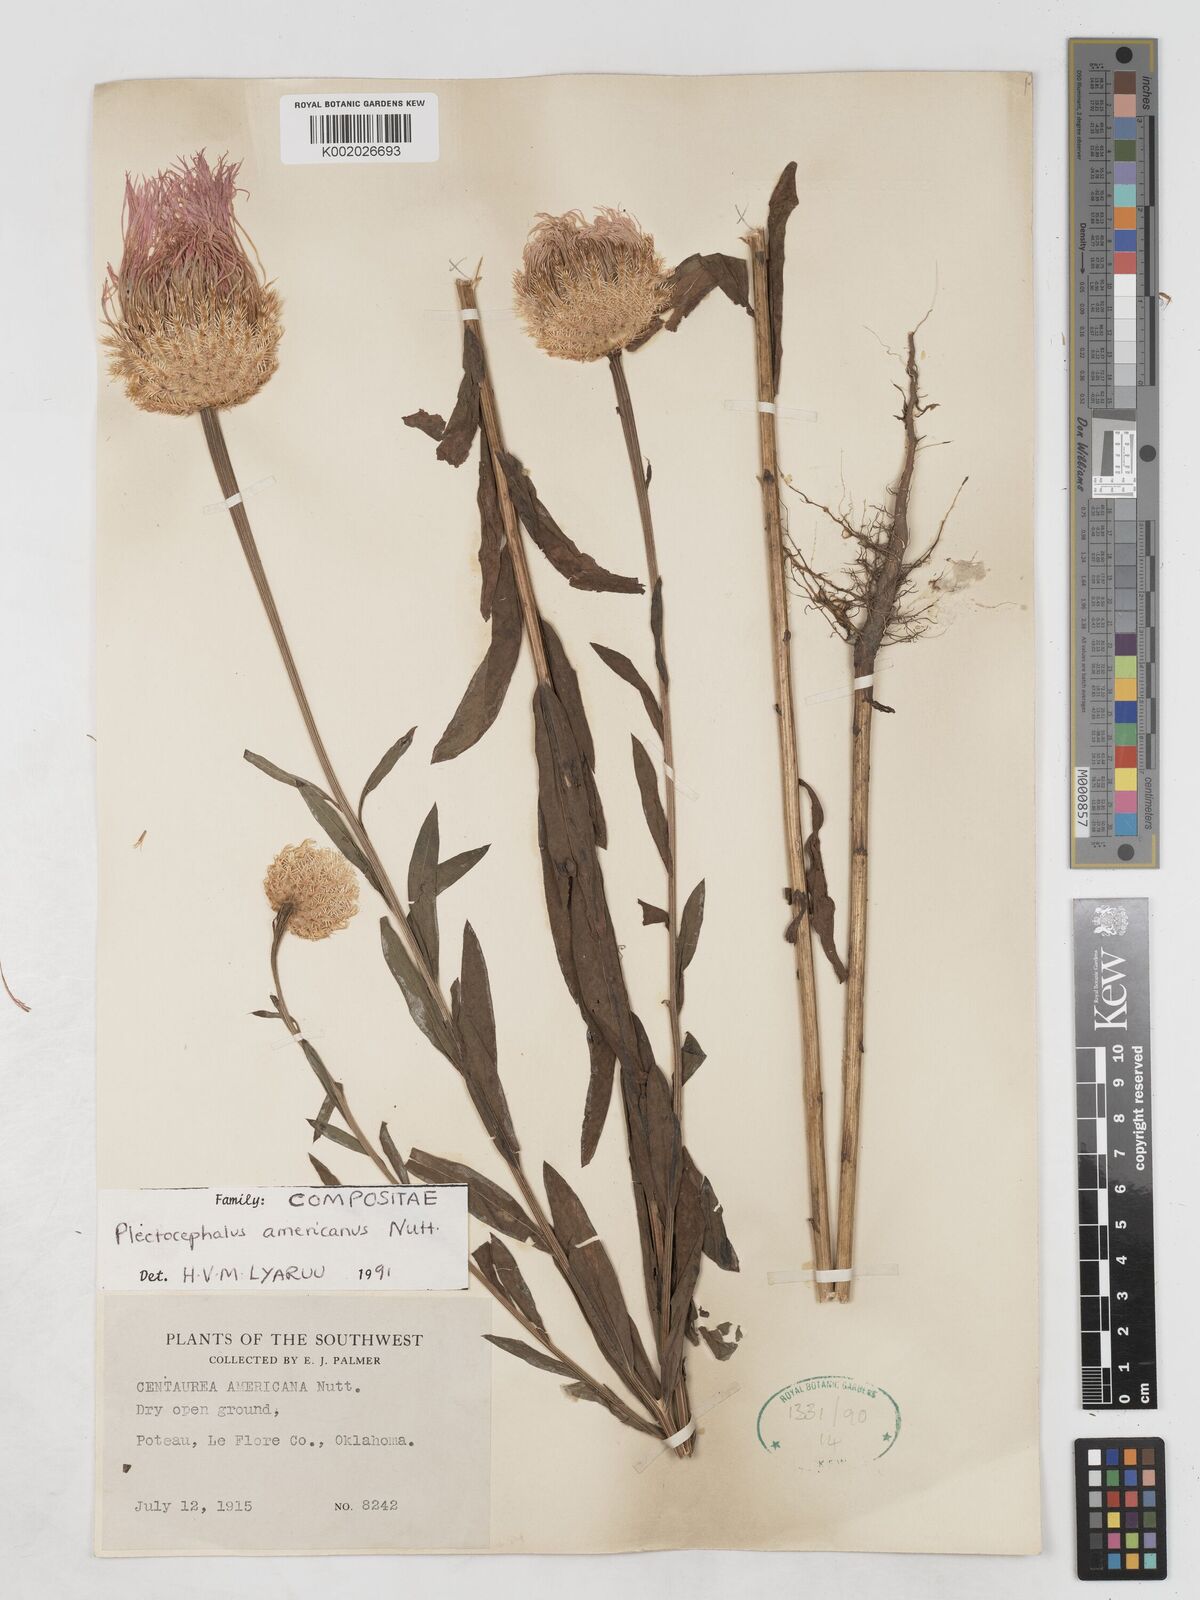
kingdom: Plantae
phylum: Tracheophyta
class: Magnoliopsida
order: Asterales
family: Asteraceae
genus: Plectocephalus
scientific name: Plectocephalus americanus
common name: American basket-flower
